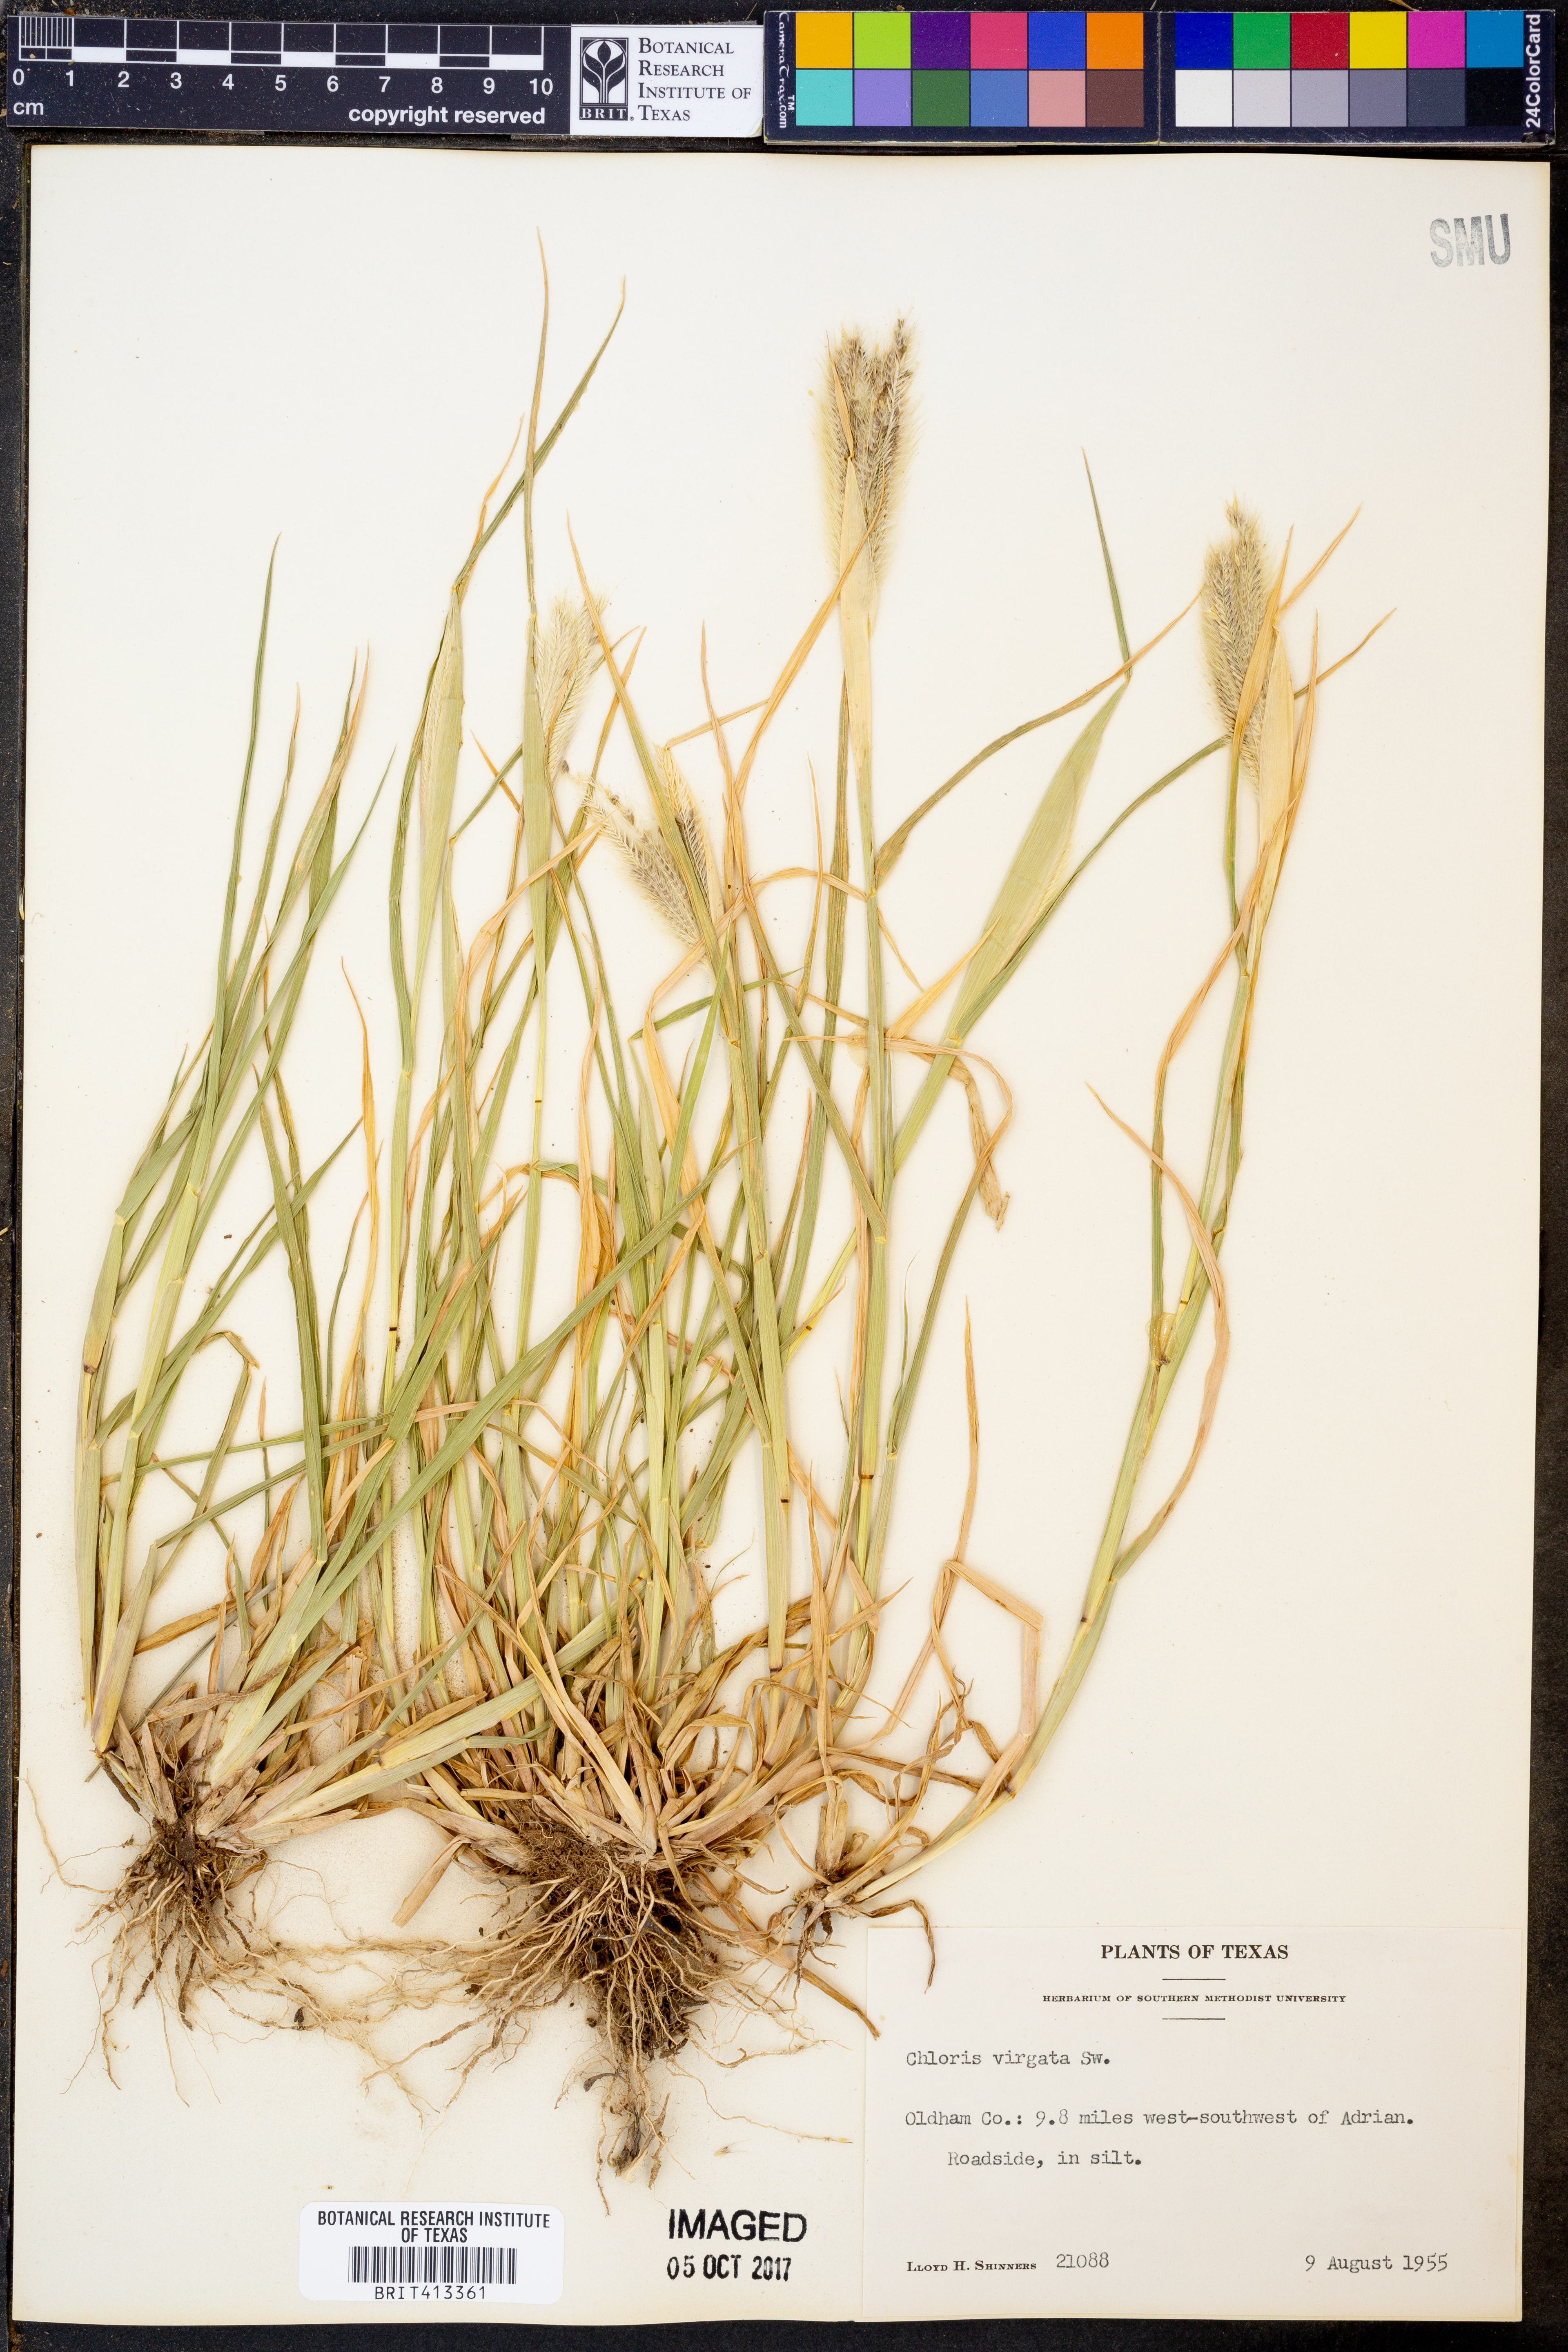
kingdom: Plantae
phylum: Tracheophyta
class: Liliopsida
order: Poales
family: Poaceae
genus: Chloris
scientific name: Chloris virgata
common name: Feathery rhodes-grass
